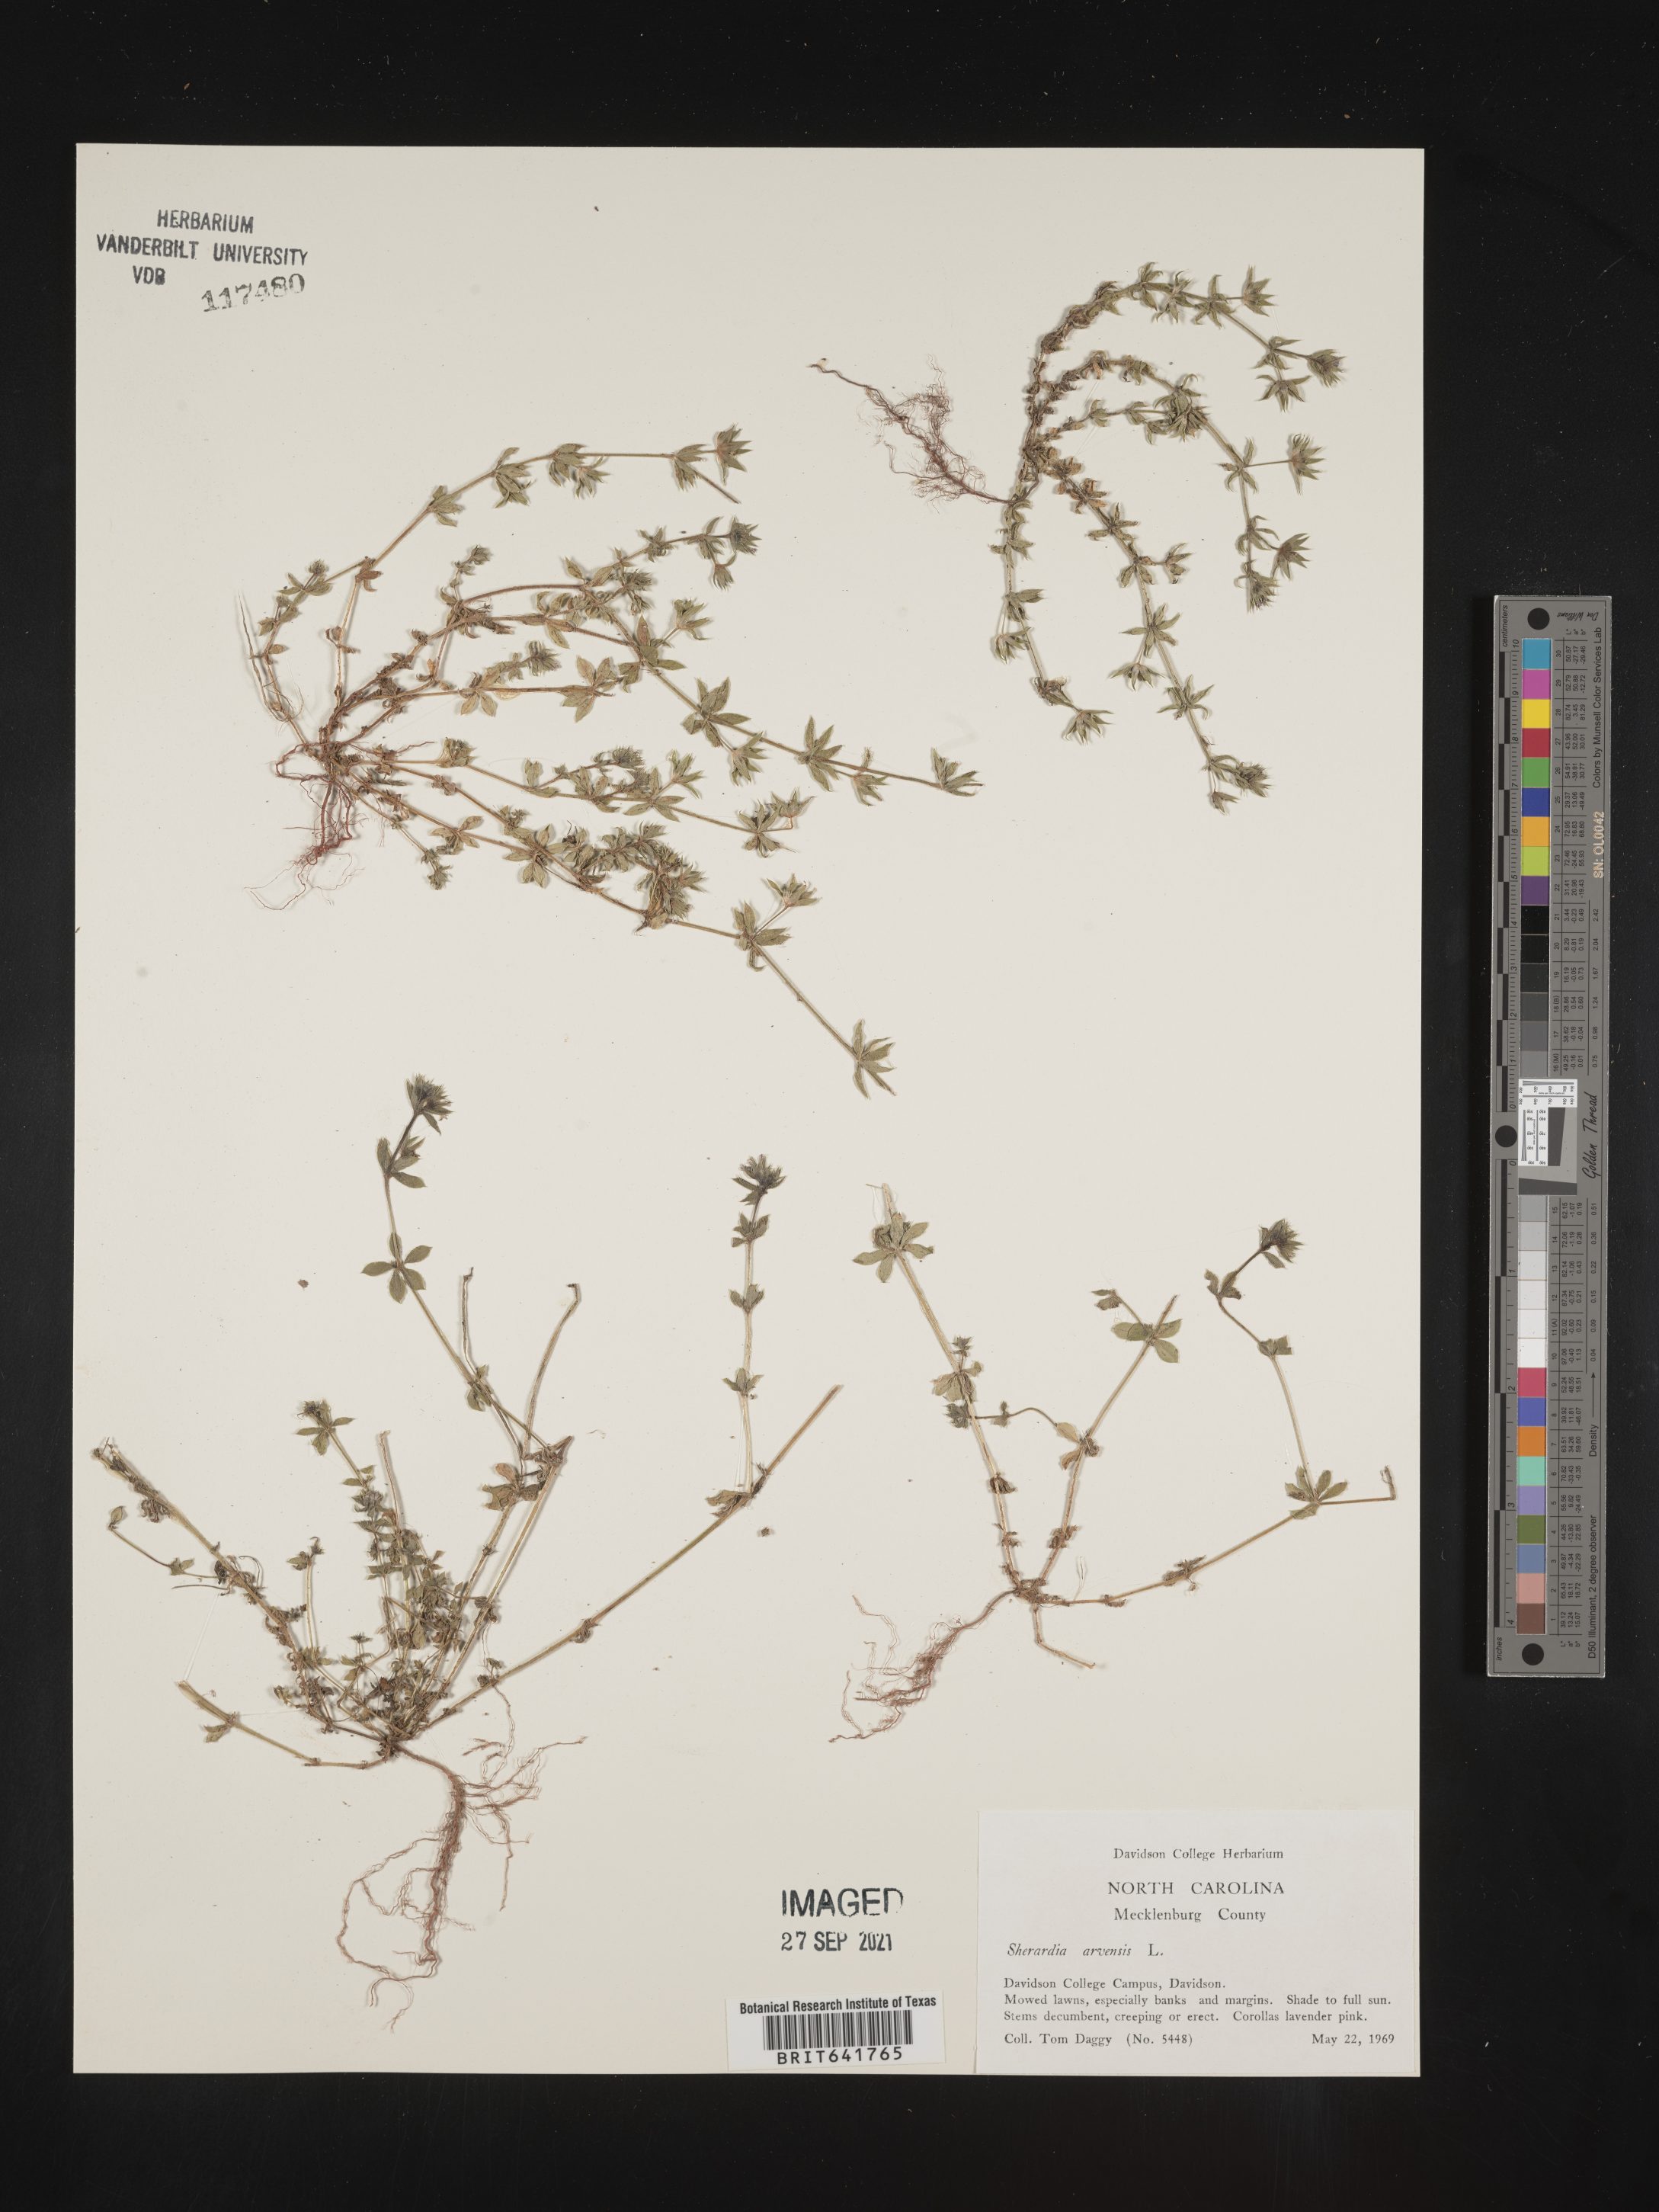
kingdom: Plantae
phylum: Tracheophyta
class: Magnoliopsida
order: Gentianales
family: Rubiaceae
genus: Sherardia
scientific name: Sherardia arvensis
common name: Field madder
